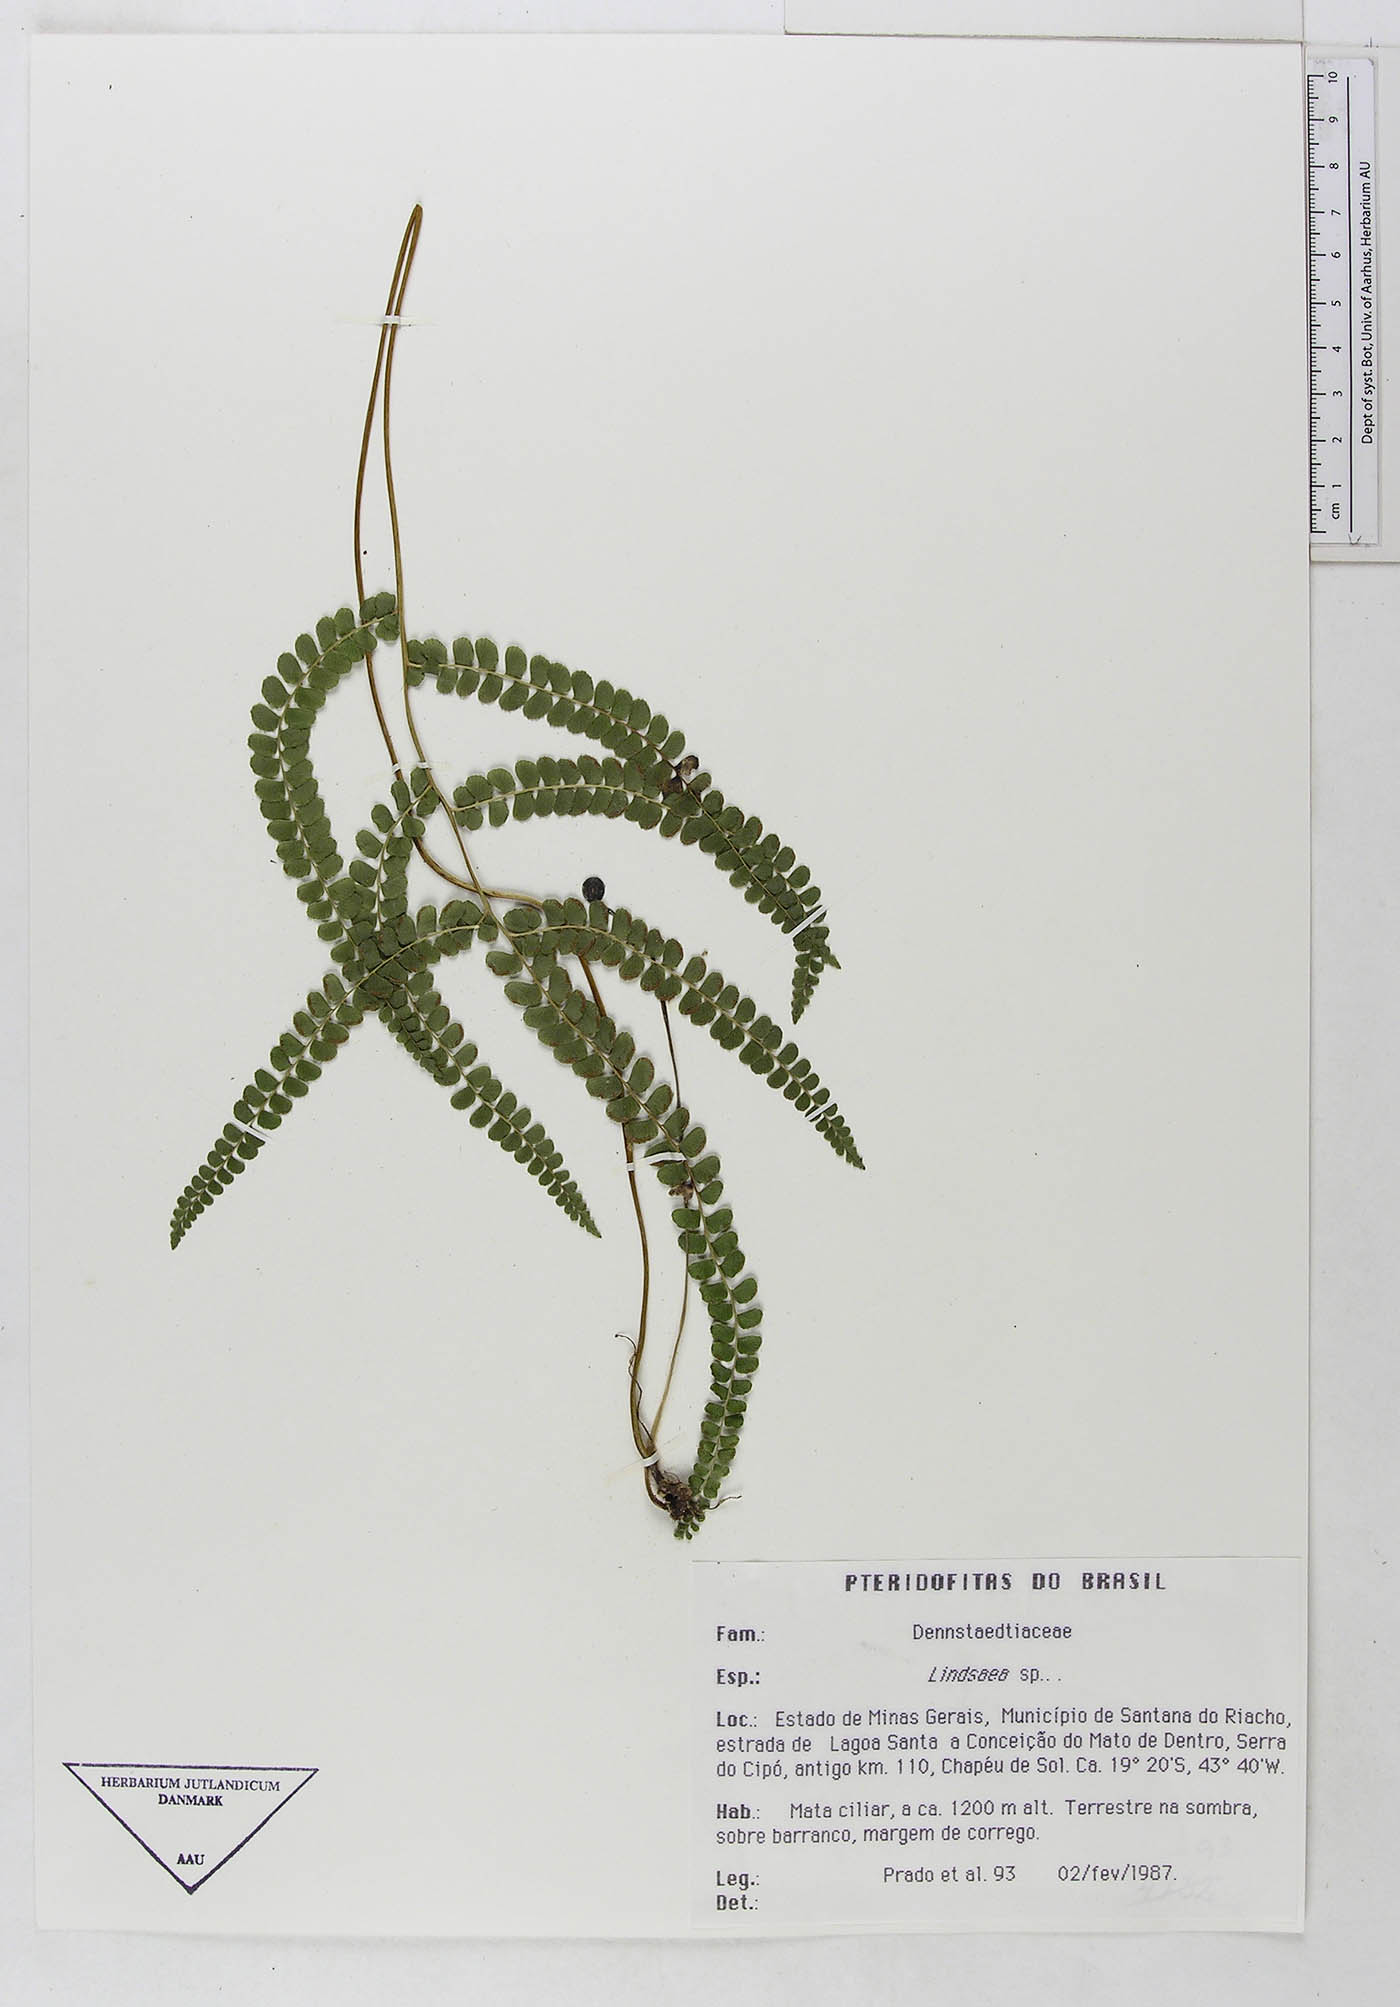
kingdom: Plantae
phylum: Tracheophyta
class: Polypodiopsida
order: Polypodiales
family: Dennstaedtiaceae
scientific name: Dennstaedtiaceae
